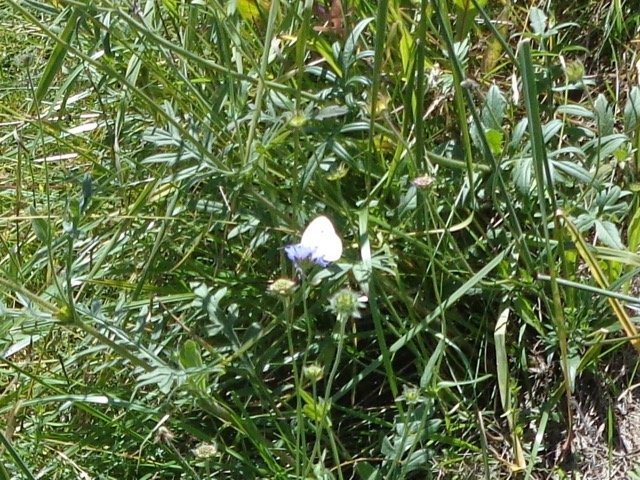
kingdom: Animalia
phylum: Arthropoda
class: Insecta
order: Lepidoptera
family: Pieridae
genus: Colias
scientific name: Colias philodice
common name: Clouded Sulphur
